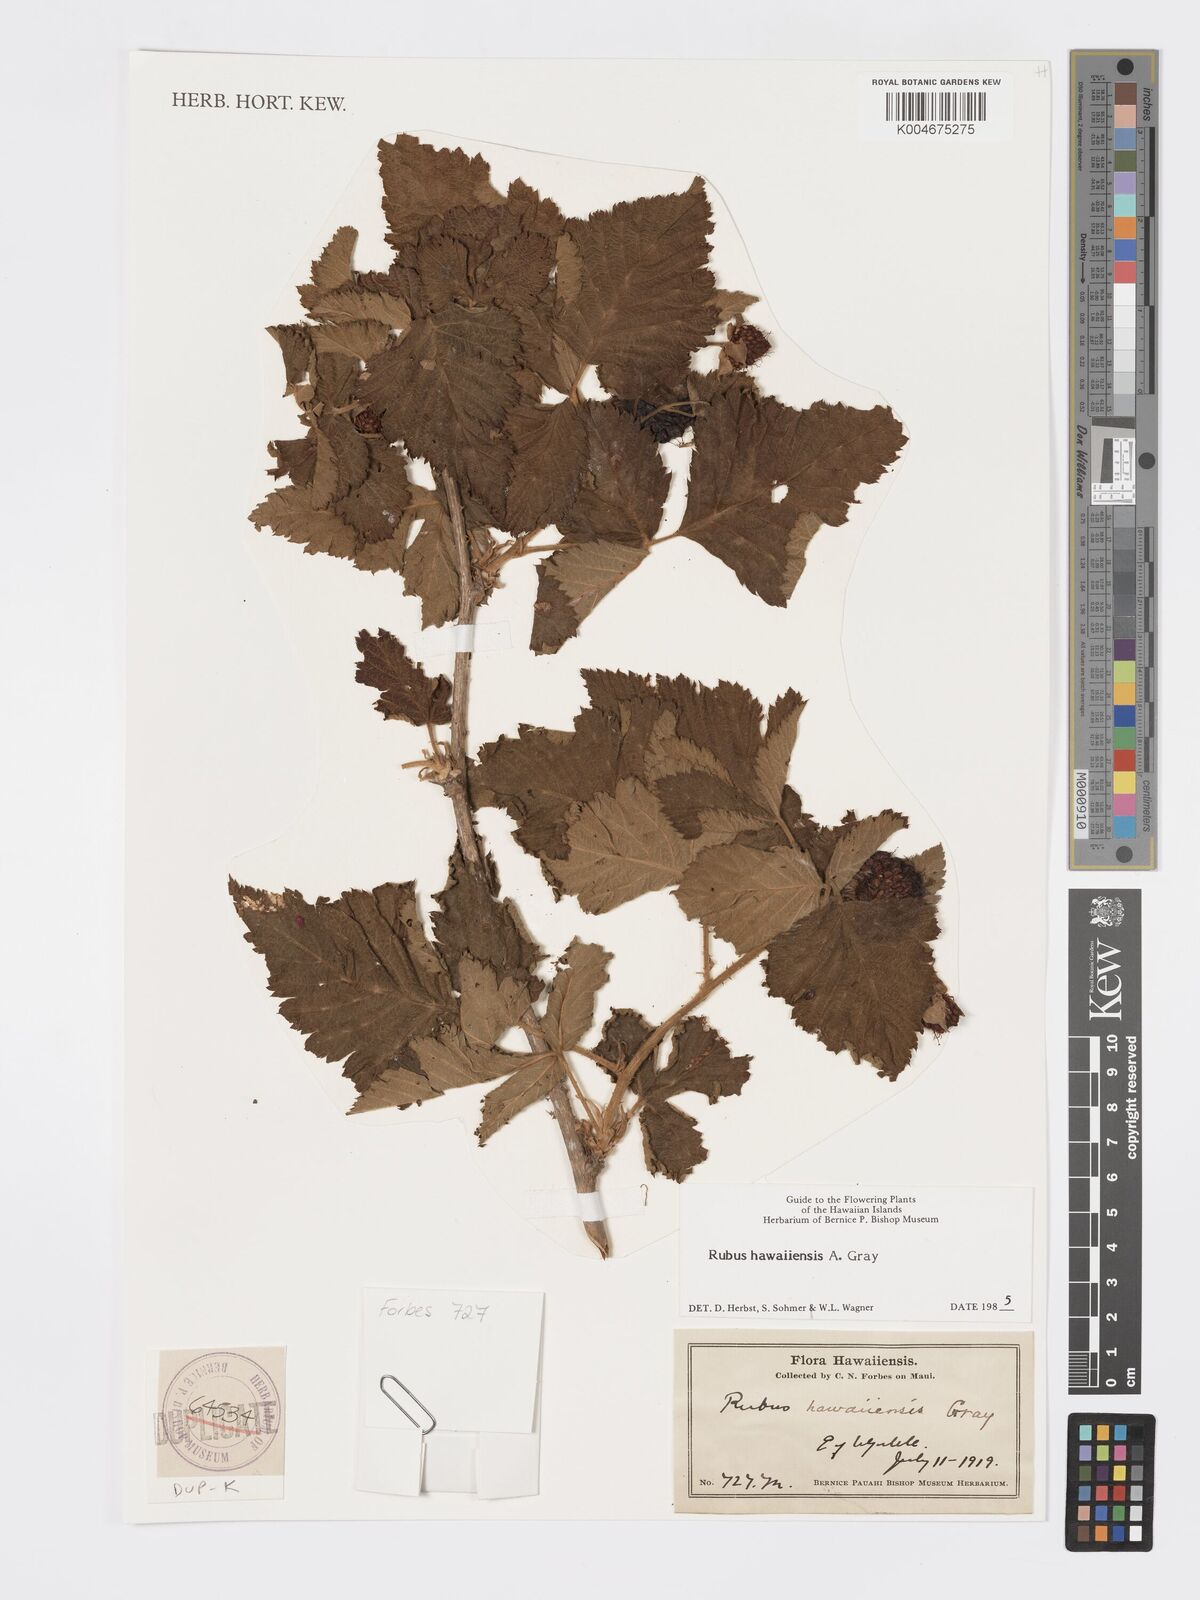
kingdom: Plantae
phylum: Tracheophyta
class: Magnoliopsida
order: Rosales
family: Rosaceae
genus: Rubus
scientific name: Rubus hawaiensis
